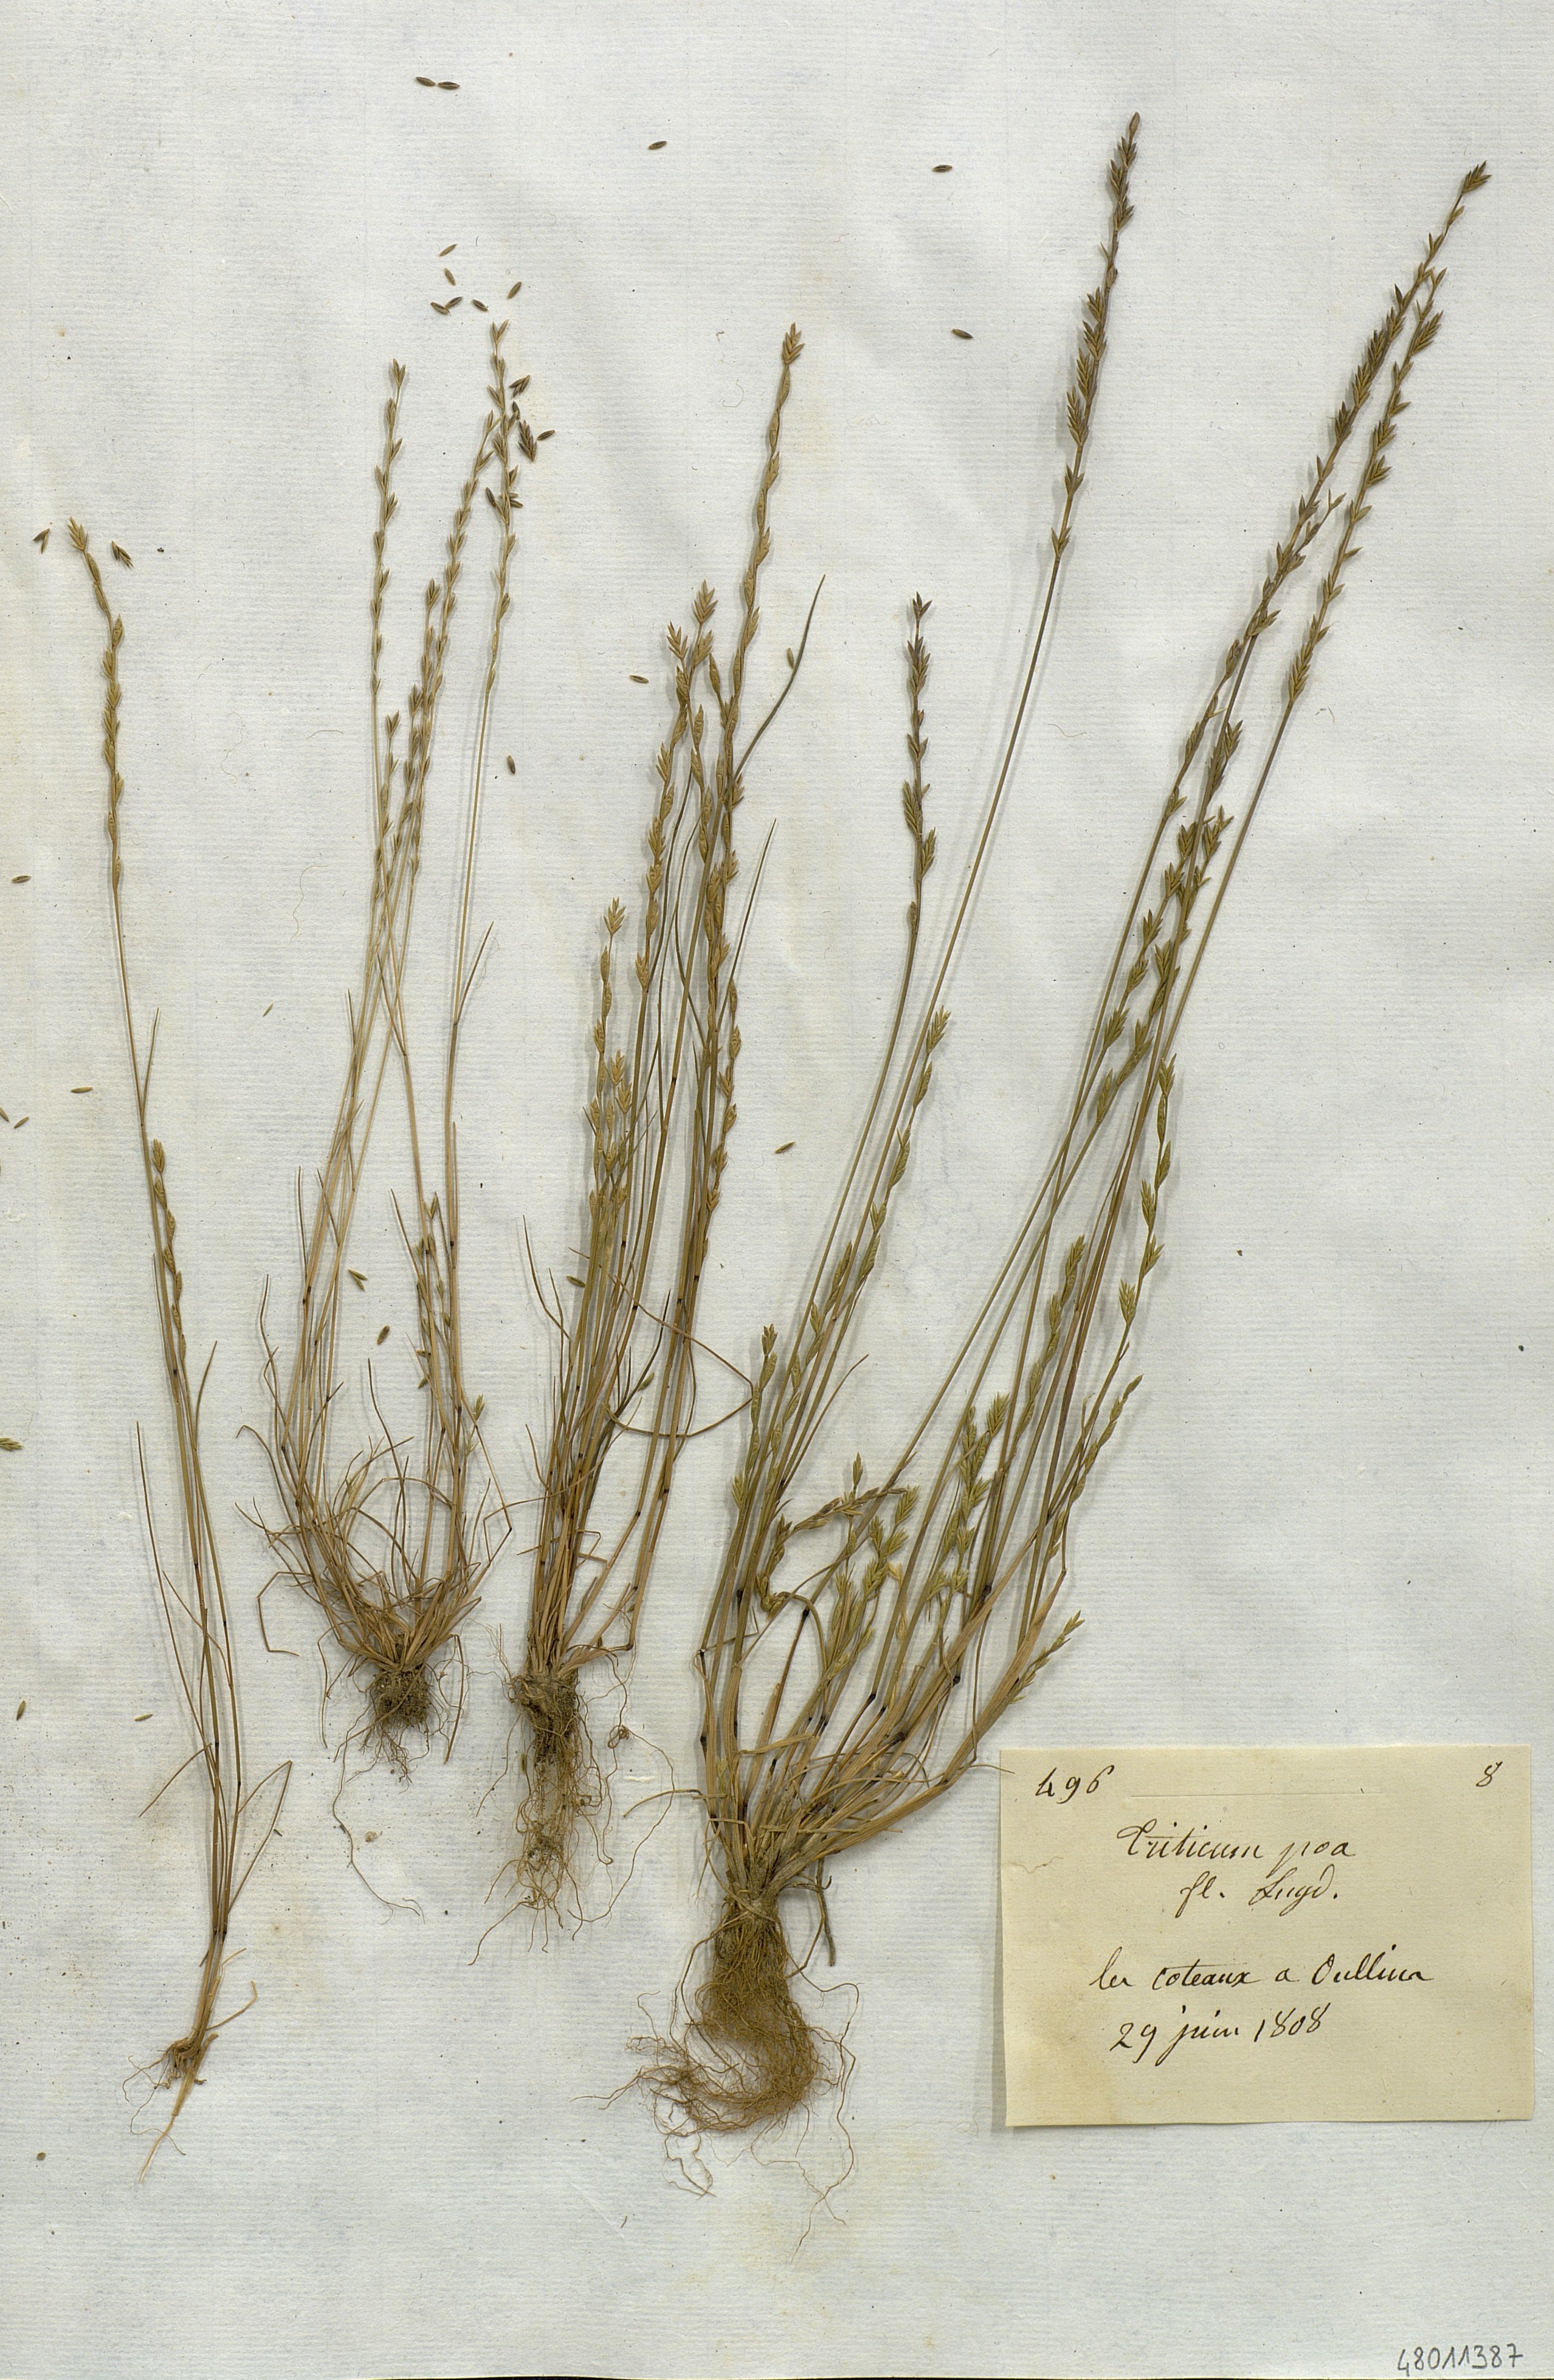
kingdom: Plantae
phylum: Tracheophyta
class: Liliopsida
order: Poales
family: Poaceae
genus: Festuca
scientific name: Festuca lachenalii
